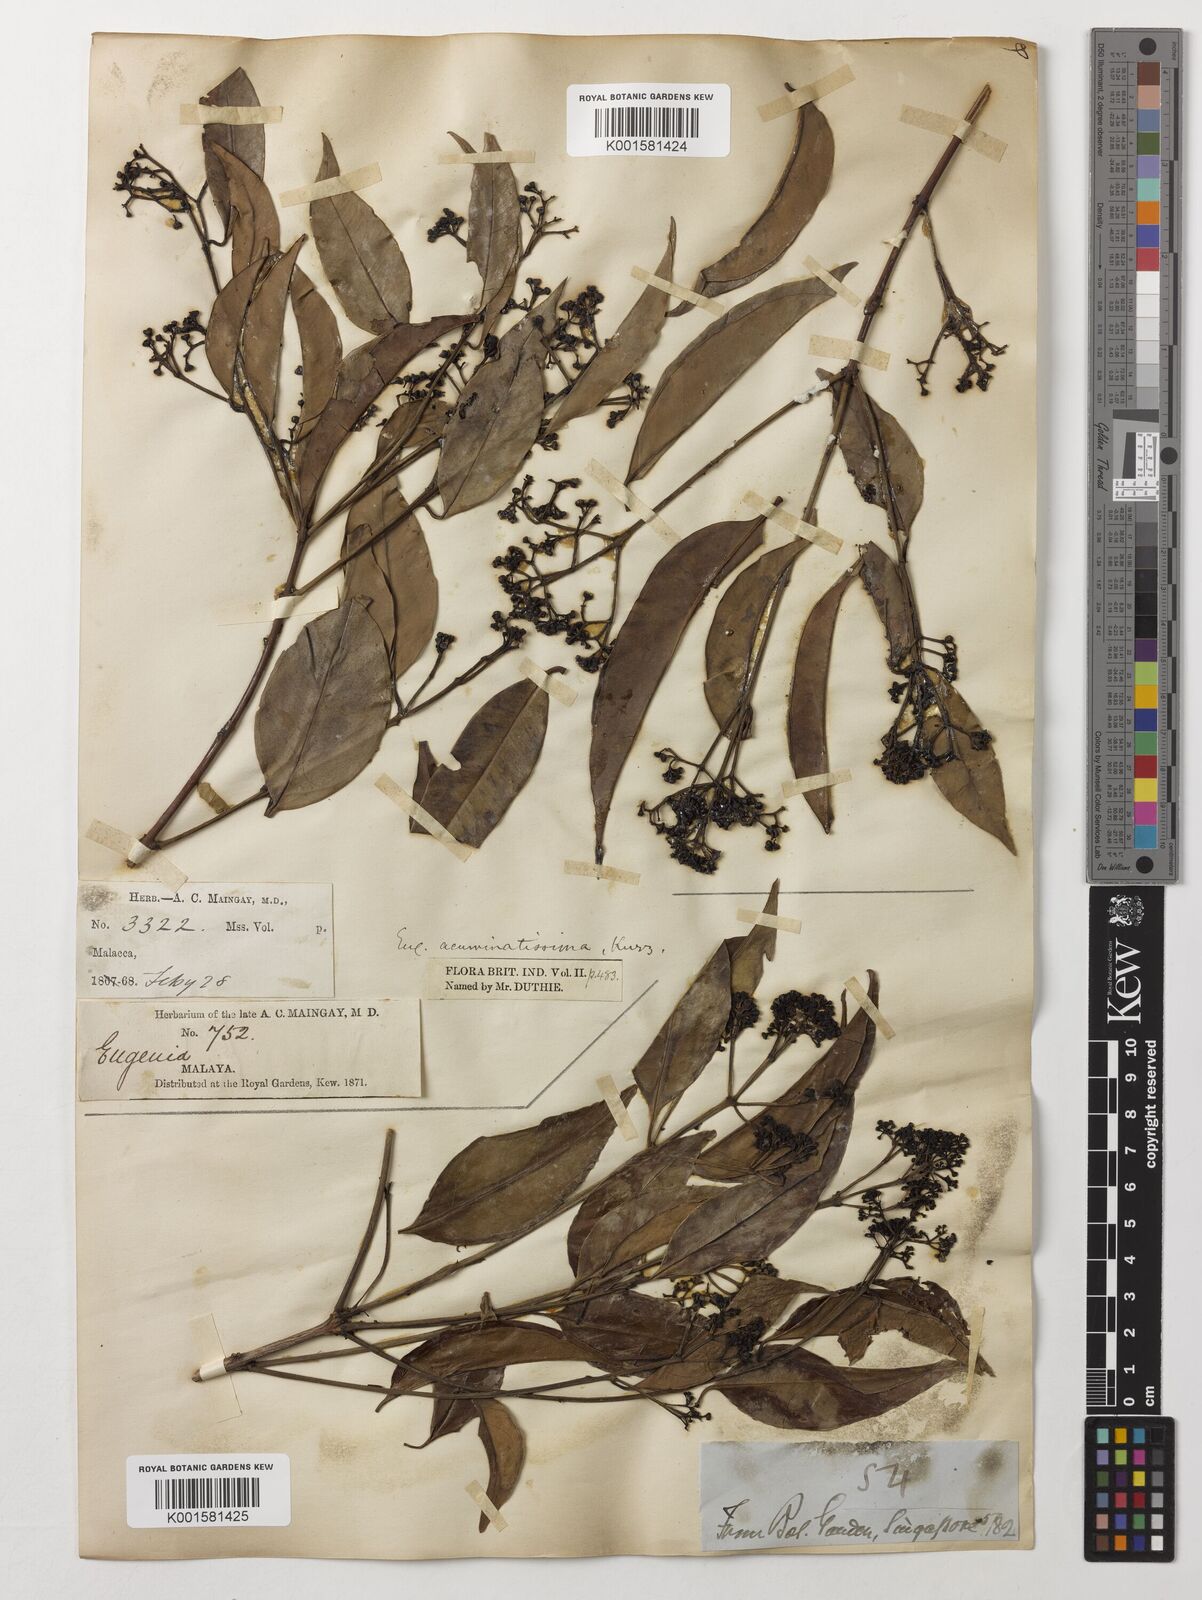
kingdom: Plantae
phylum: Tracheophyta
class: Magnoliopsida
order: Myrtales
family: Myrtaceae
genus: Eugenia
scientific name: Eugenia
